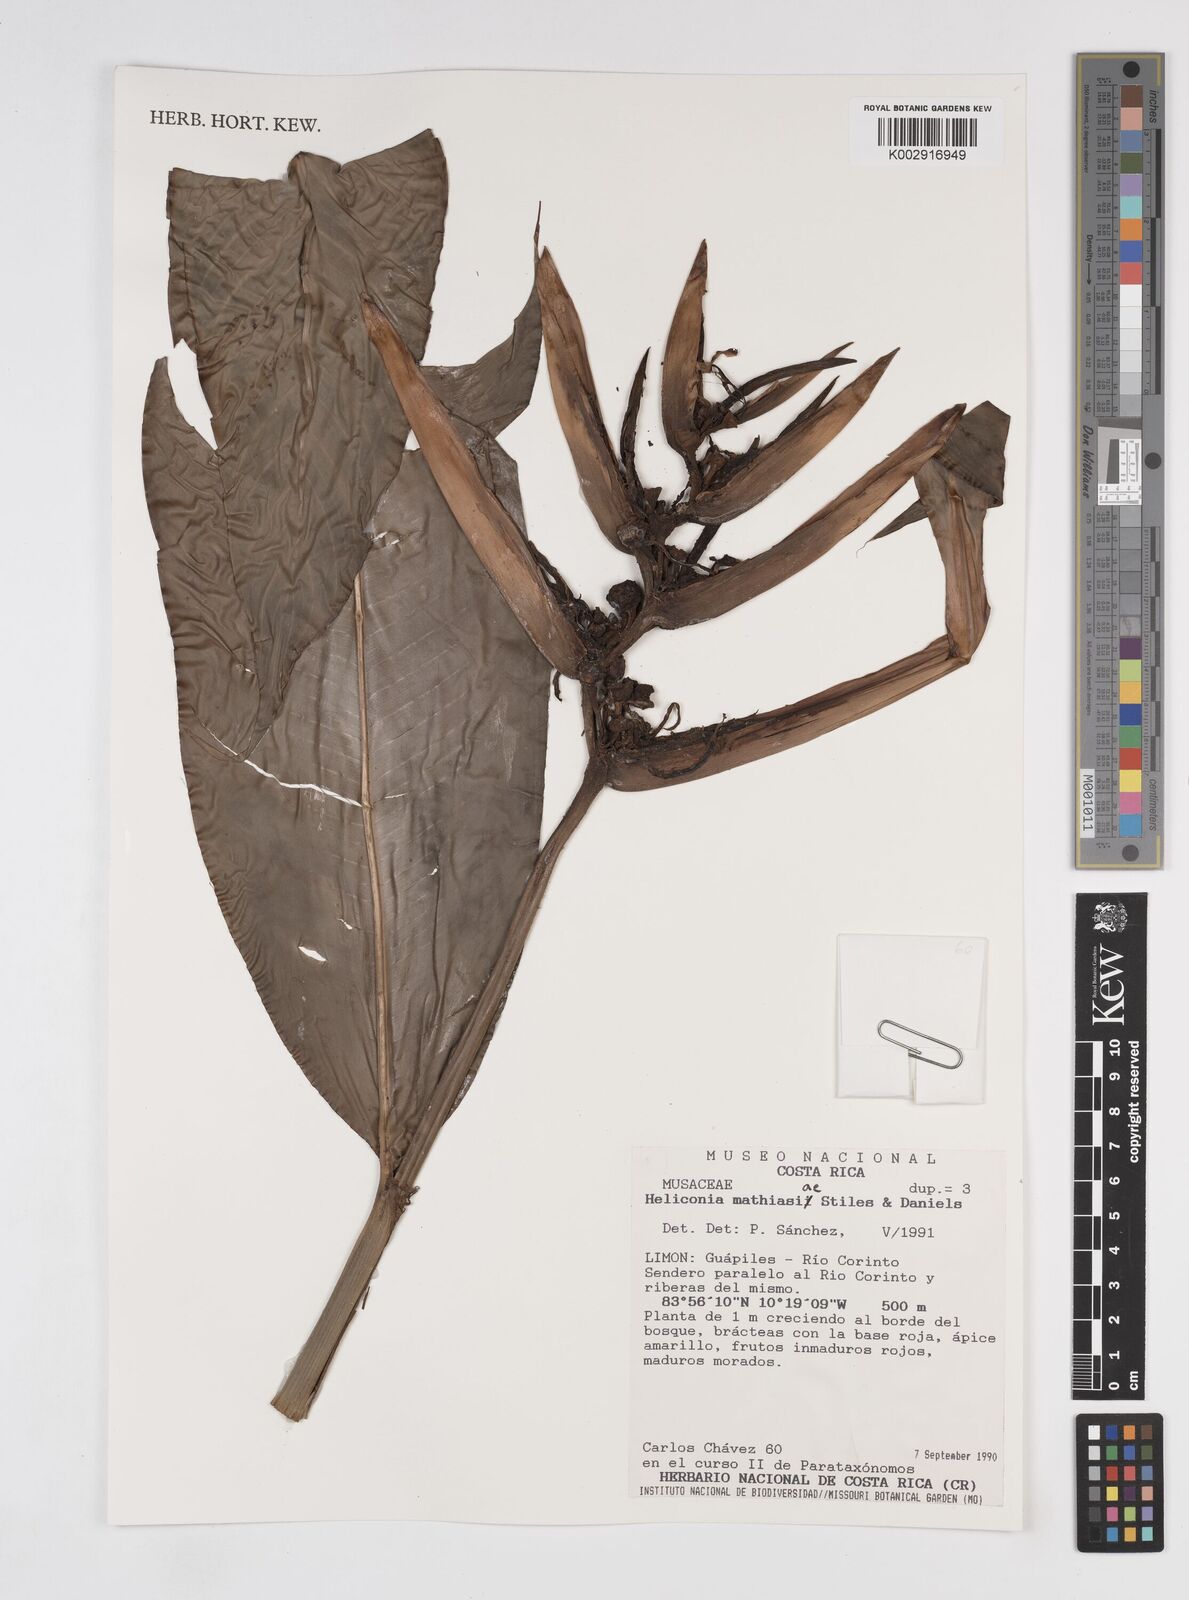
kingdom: Plantae
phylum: Tracheophyta
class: Liliopsida
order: Zingiberales
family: Heliconiaceae
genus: Heliconia
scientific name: Heliconia mathiasiae
